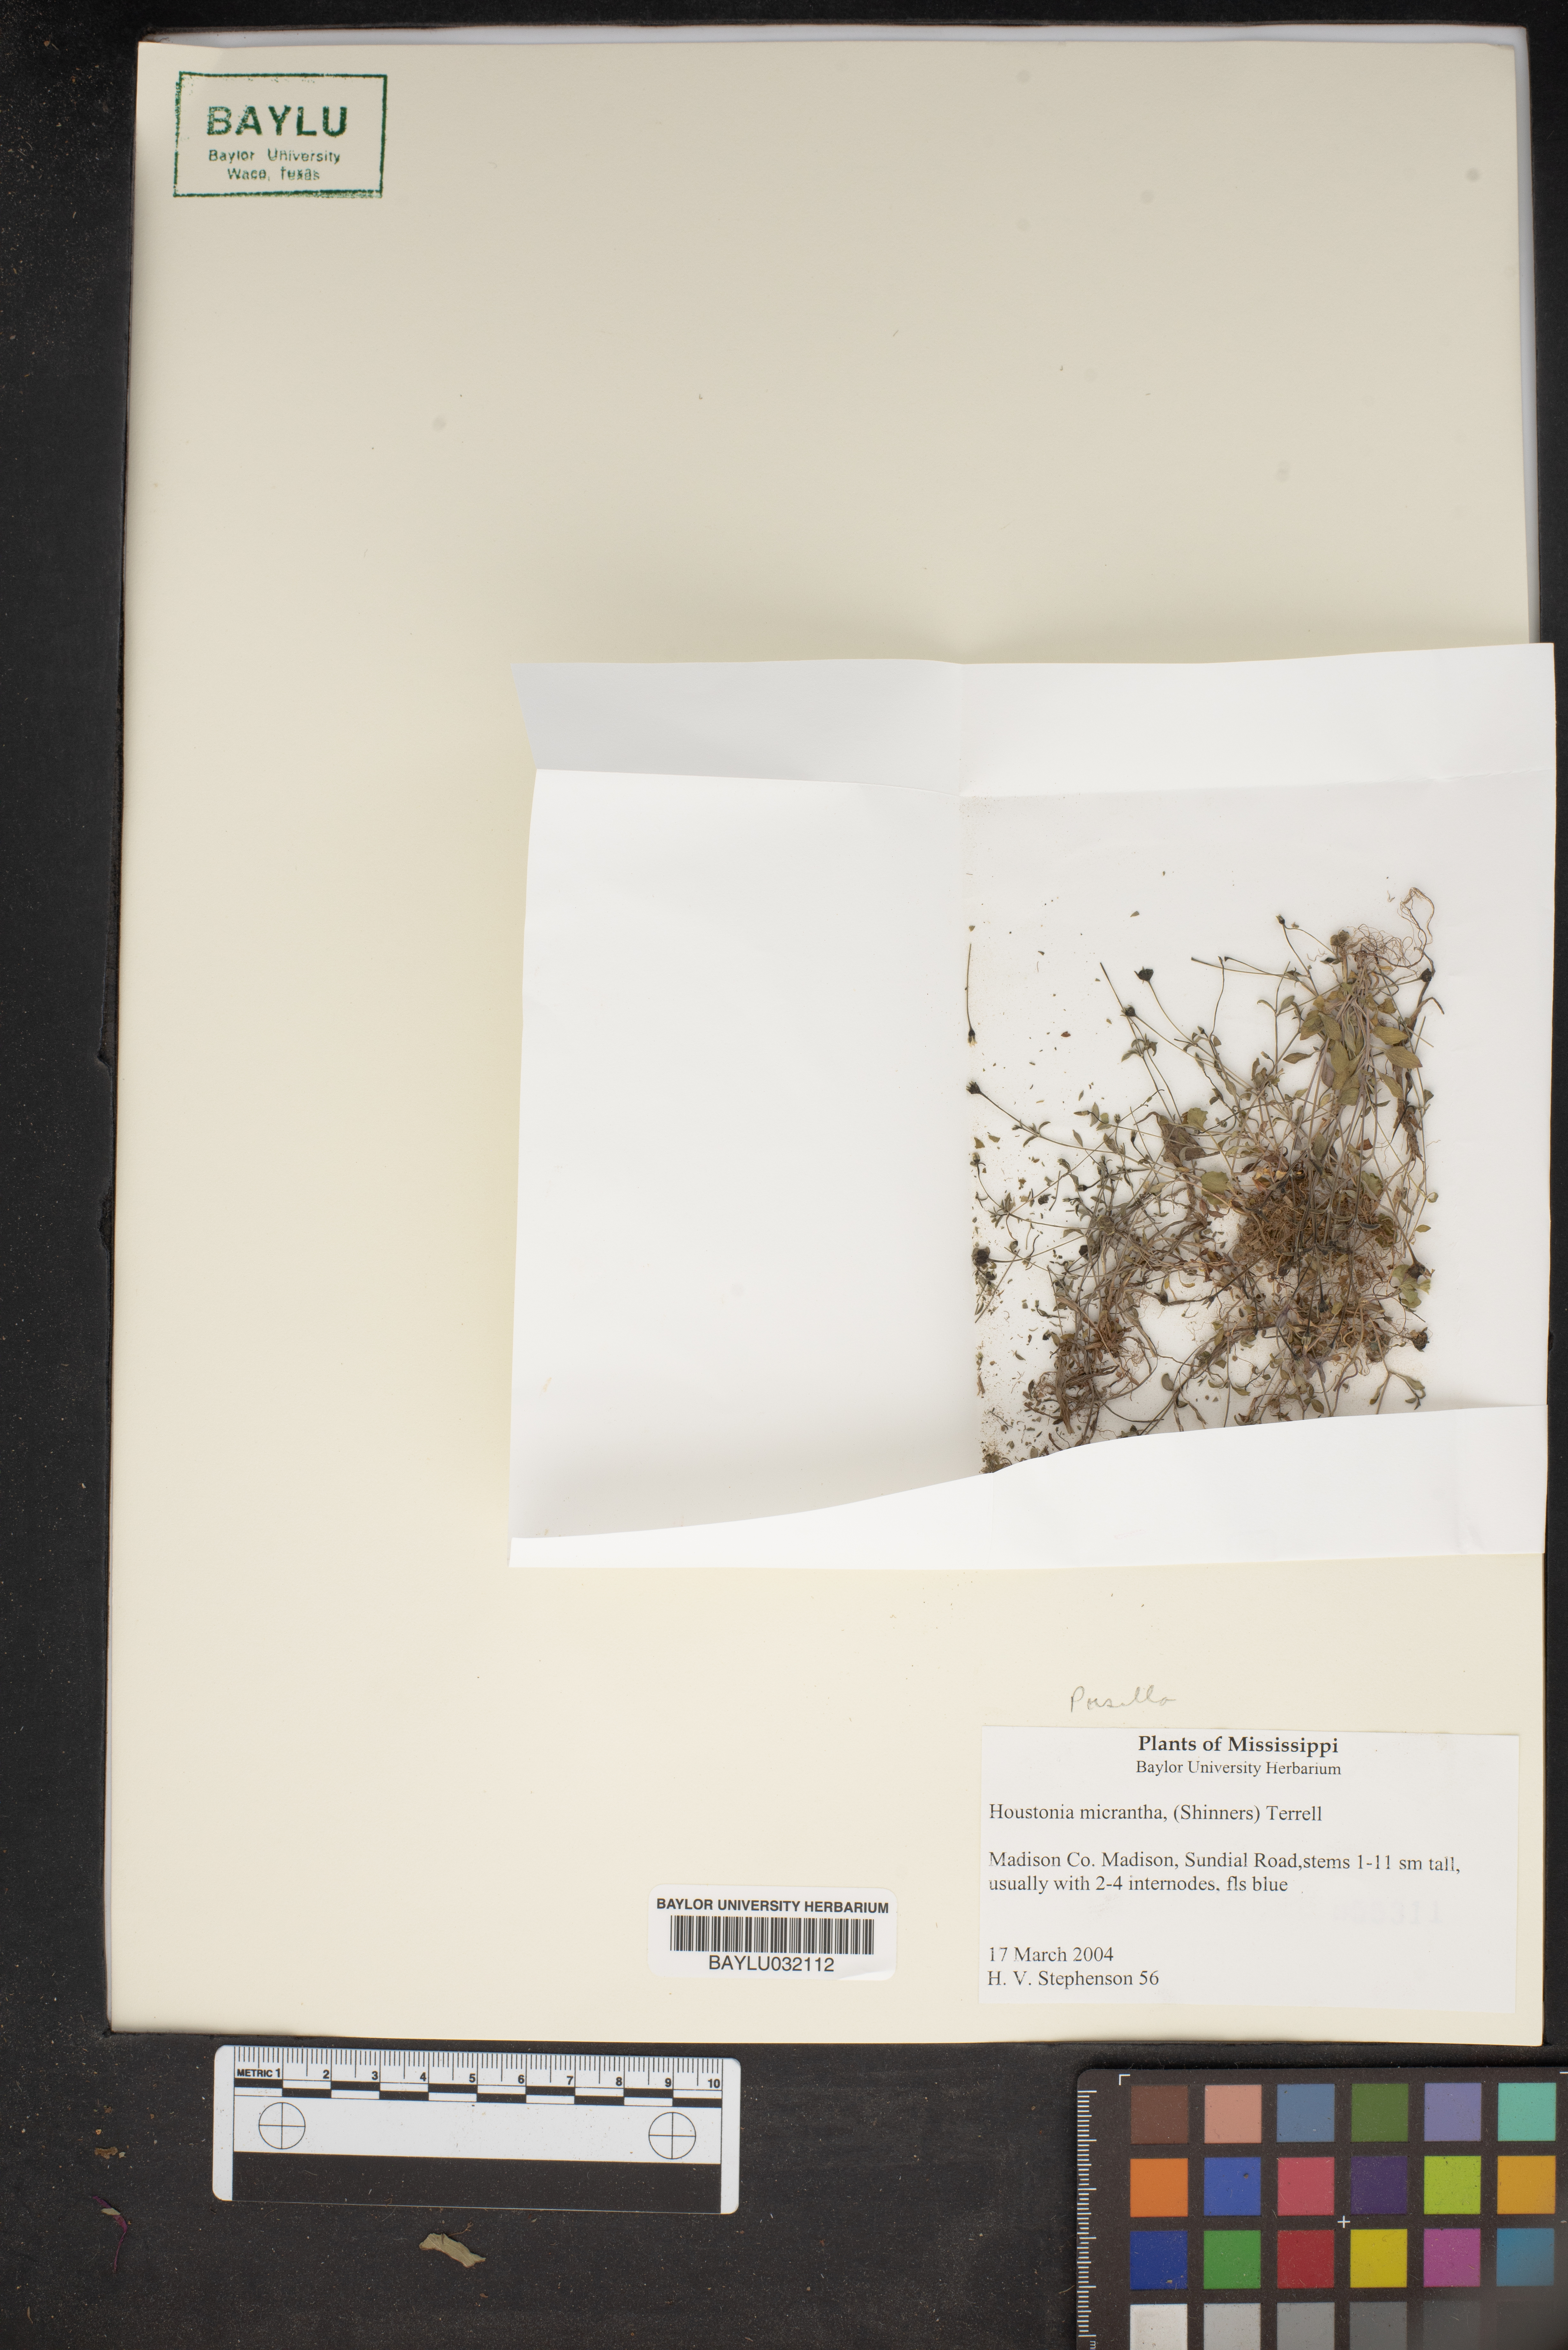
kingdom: Plantae
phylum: Tracheophyta
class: Magnoliopsida
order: Gentianales
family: Rubiaceae
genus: Houstonia
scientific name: Houstonia micrantha
